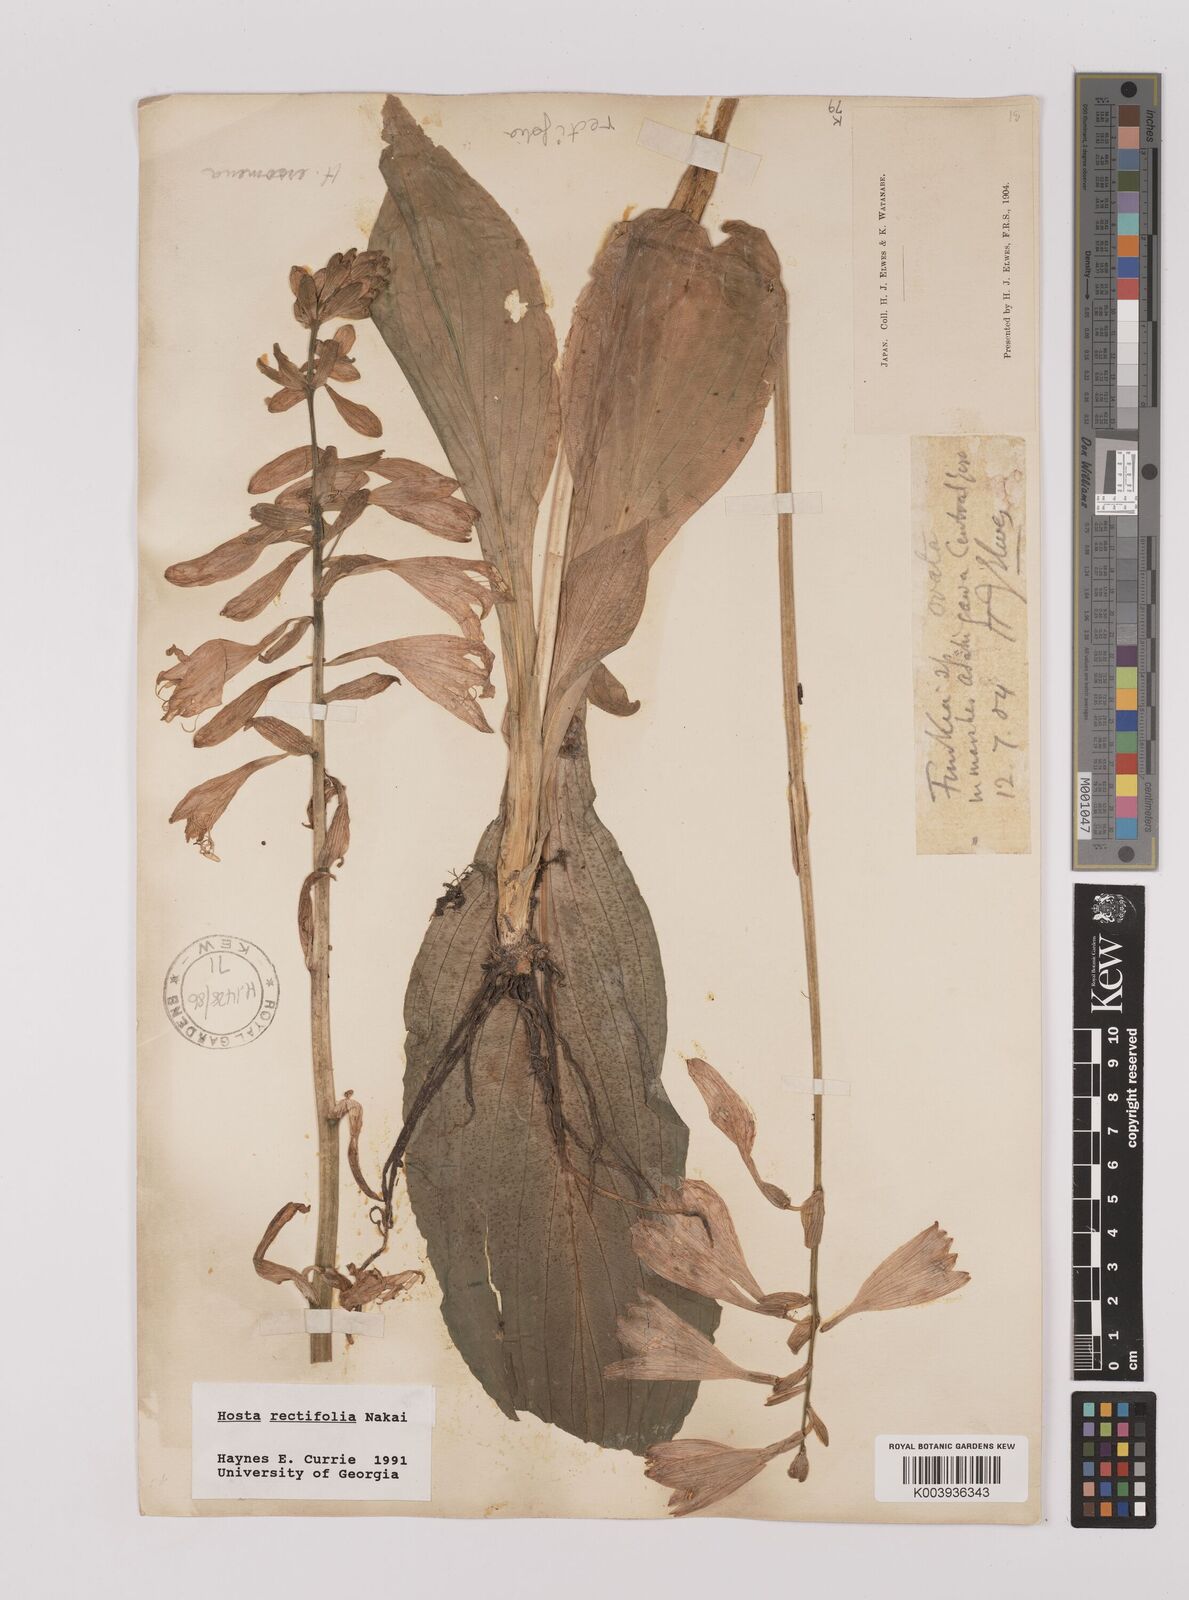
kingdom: Plantae
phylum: Tracheophyta
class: Liliopsida
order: Asparagales
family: Asparagaceae
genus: Hosta
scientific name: Hosta sieboldii
